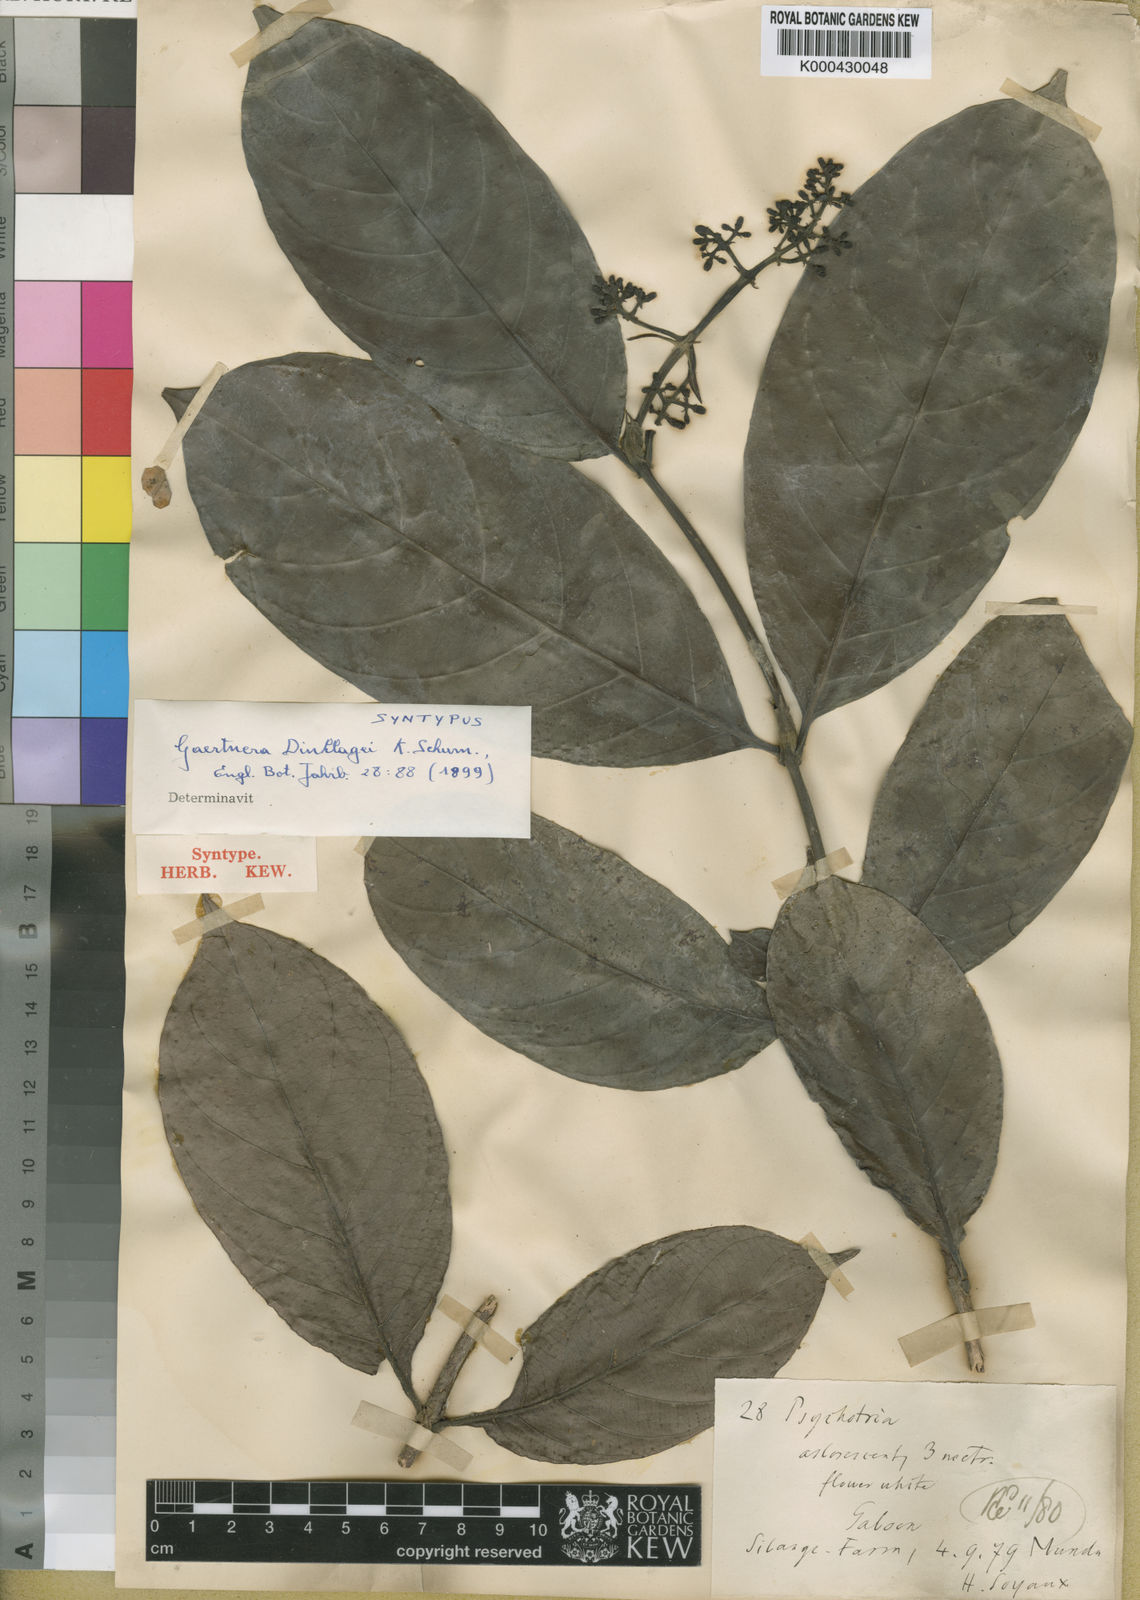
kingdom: Plantae
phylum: Tracheophyta
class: Magnoliopsida
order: Gentianales
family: Rubiaceae
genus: Gaertnera
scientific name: Gaertnera trachystyla
